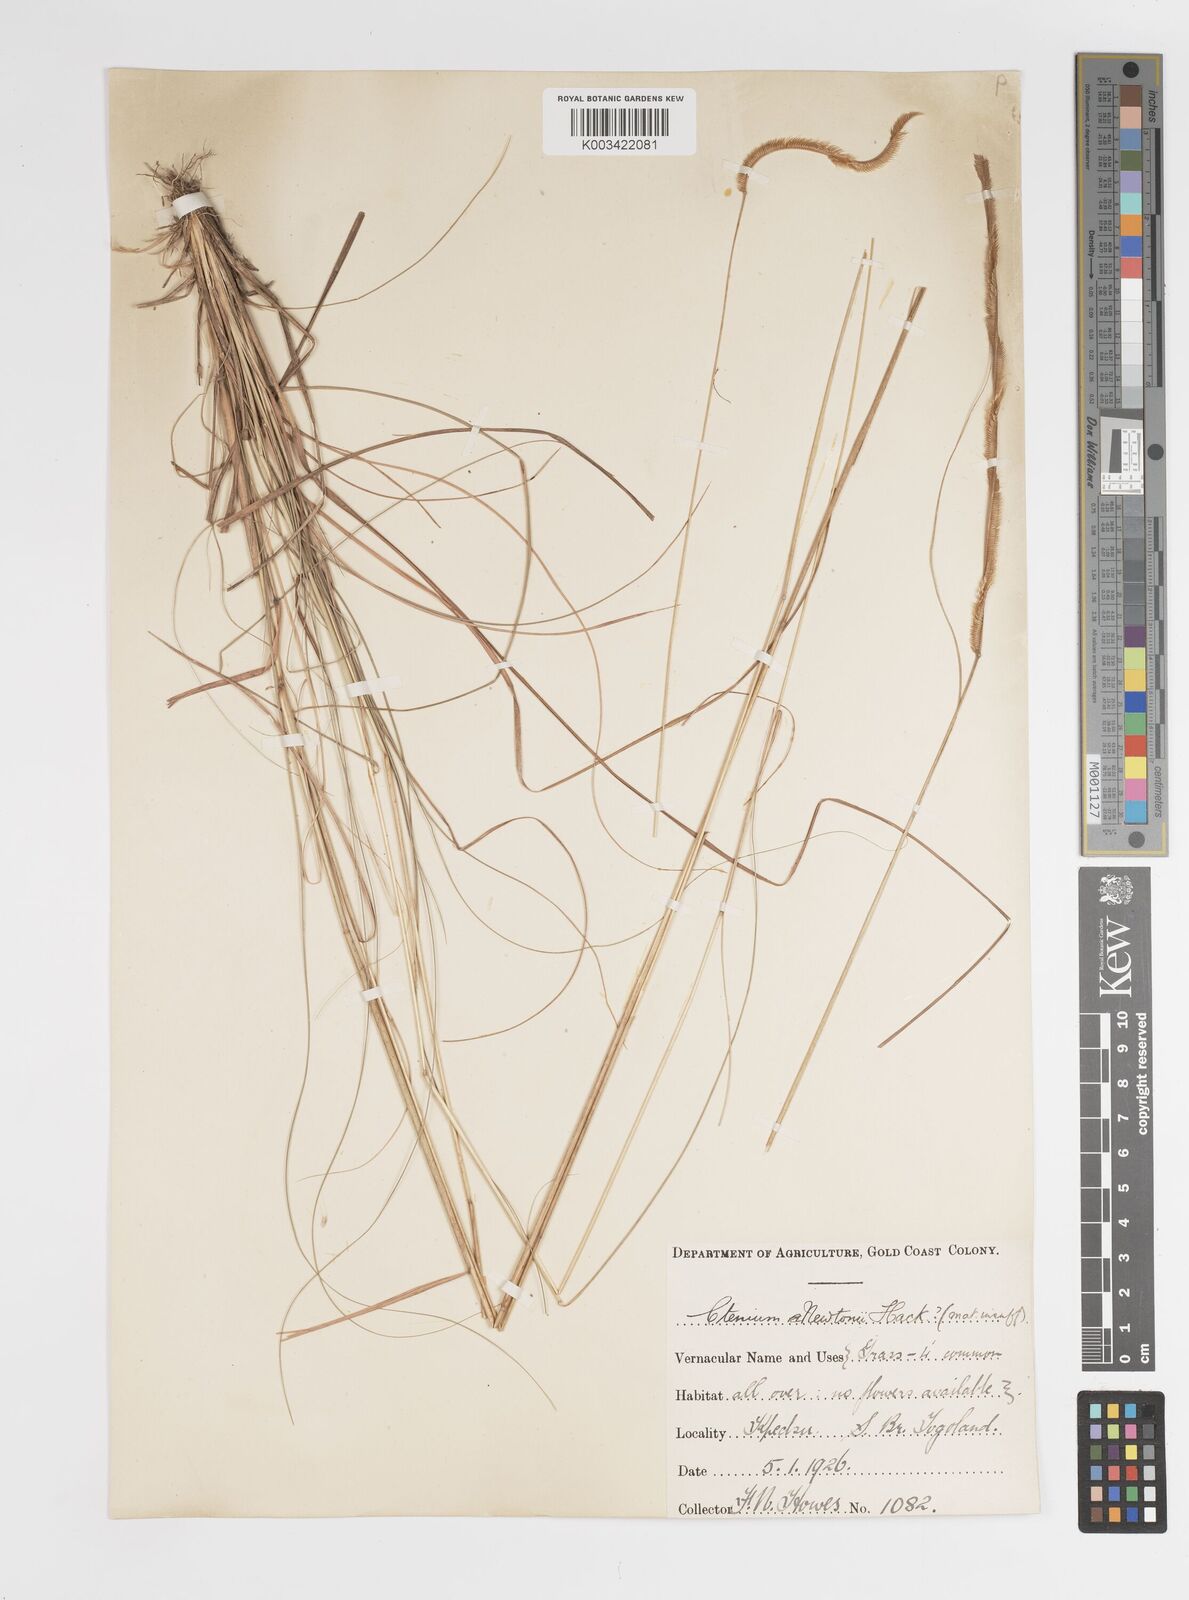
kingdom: Plantae
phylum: Tracheophyta
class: Liliopsida
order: Poales
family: Poaceae
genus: Ctenium
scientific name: Ctenium newtonii
